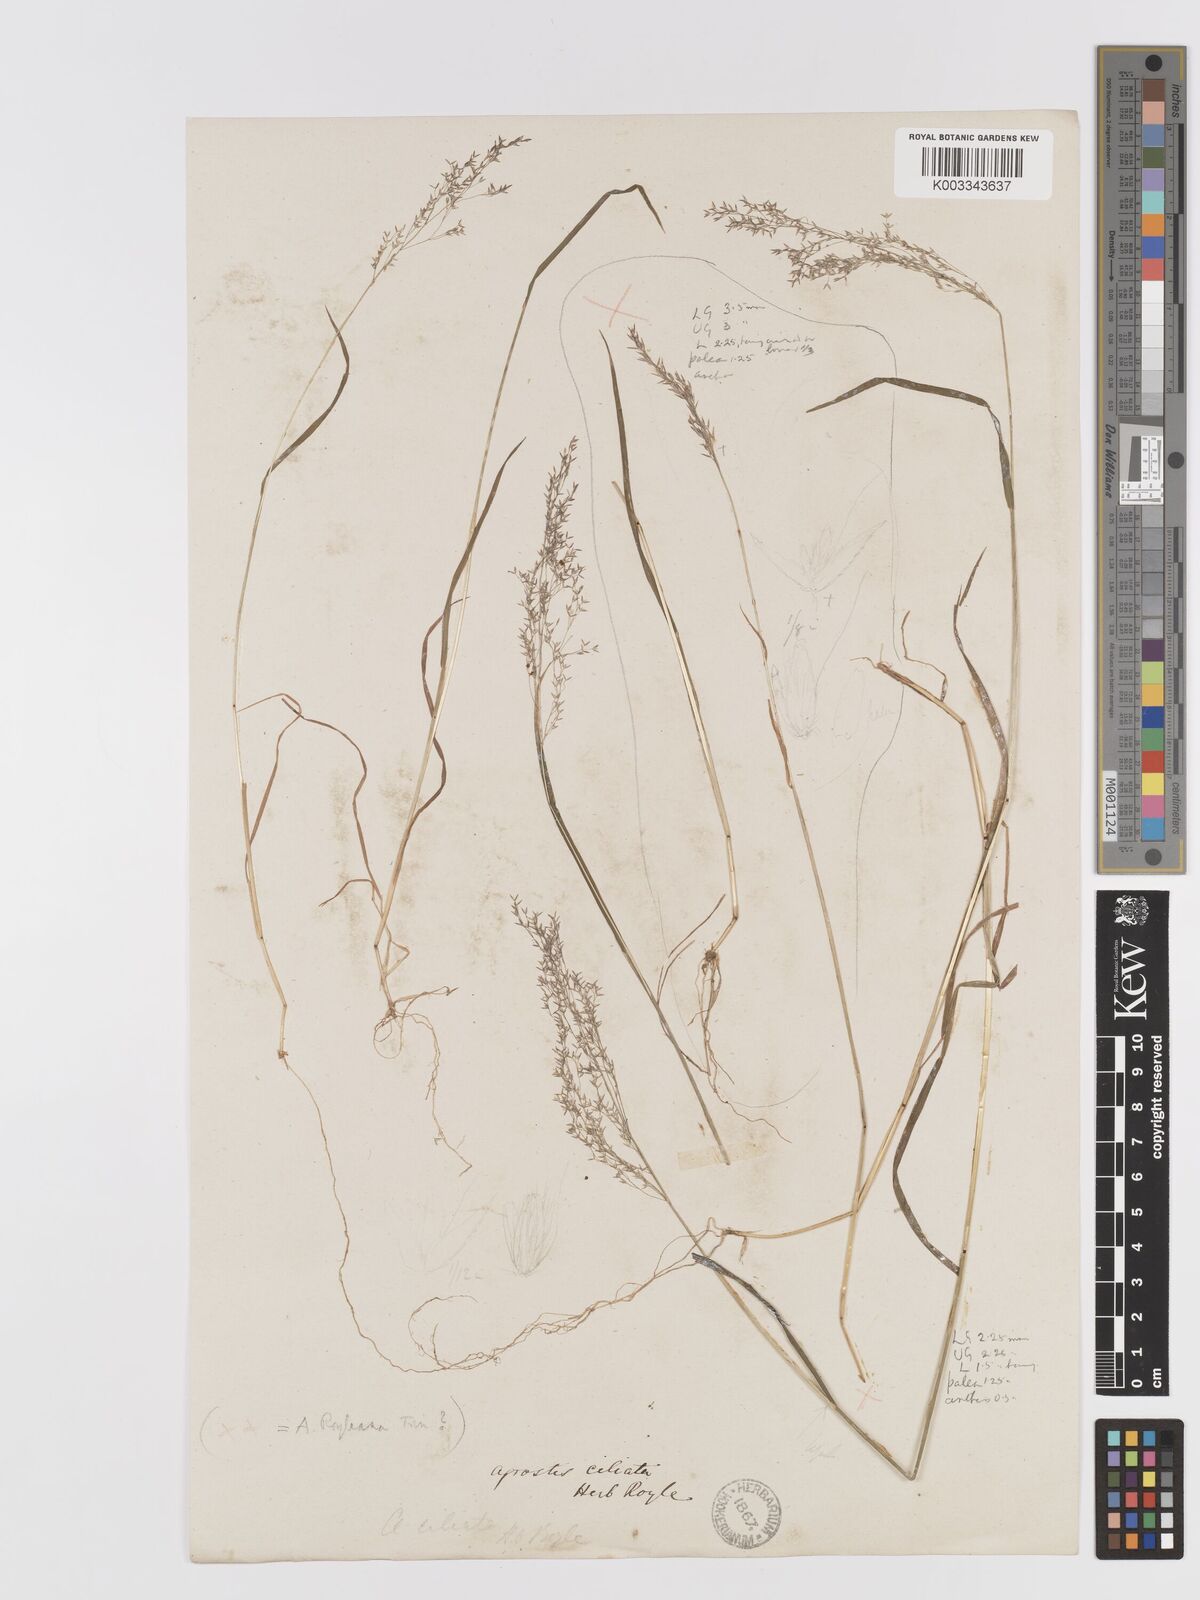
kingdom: Plantae
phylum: Tracheophyta
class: Liliopsida
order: Poales
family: Poaceae
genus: Agrostis
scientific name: Agrostis munroana
